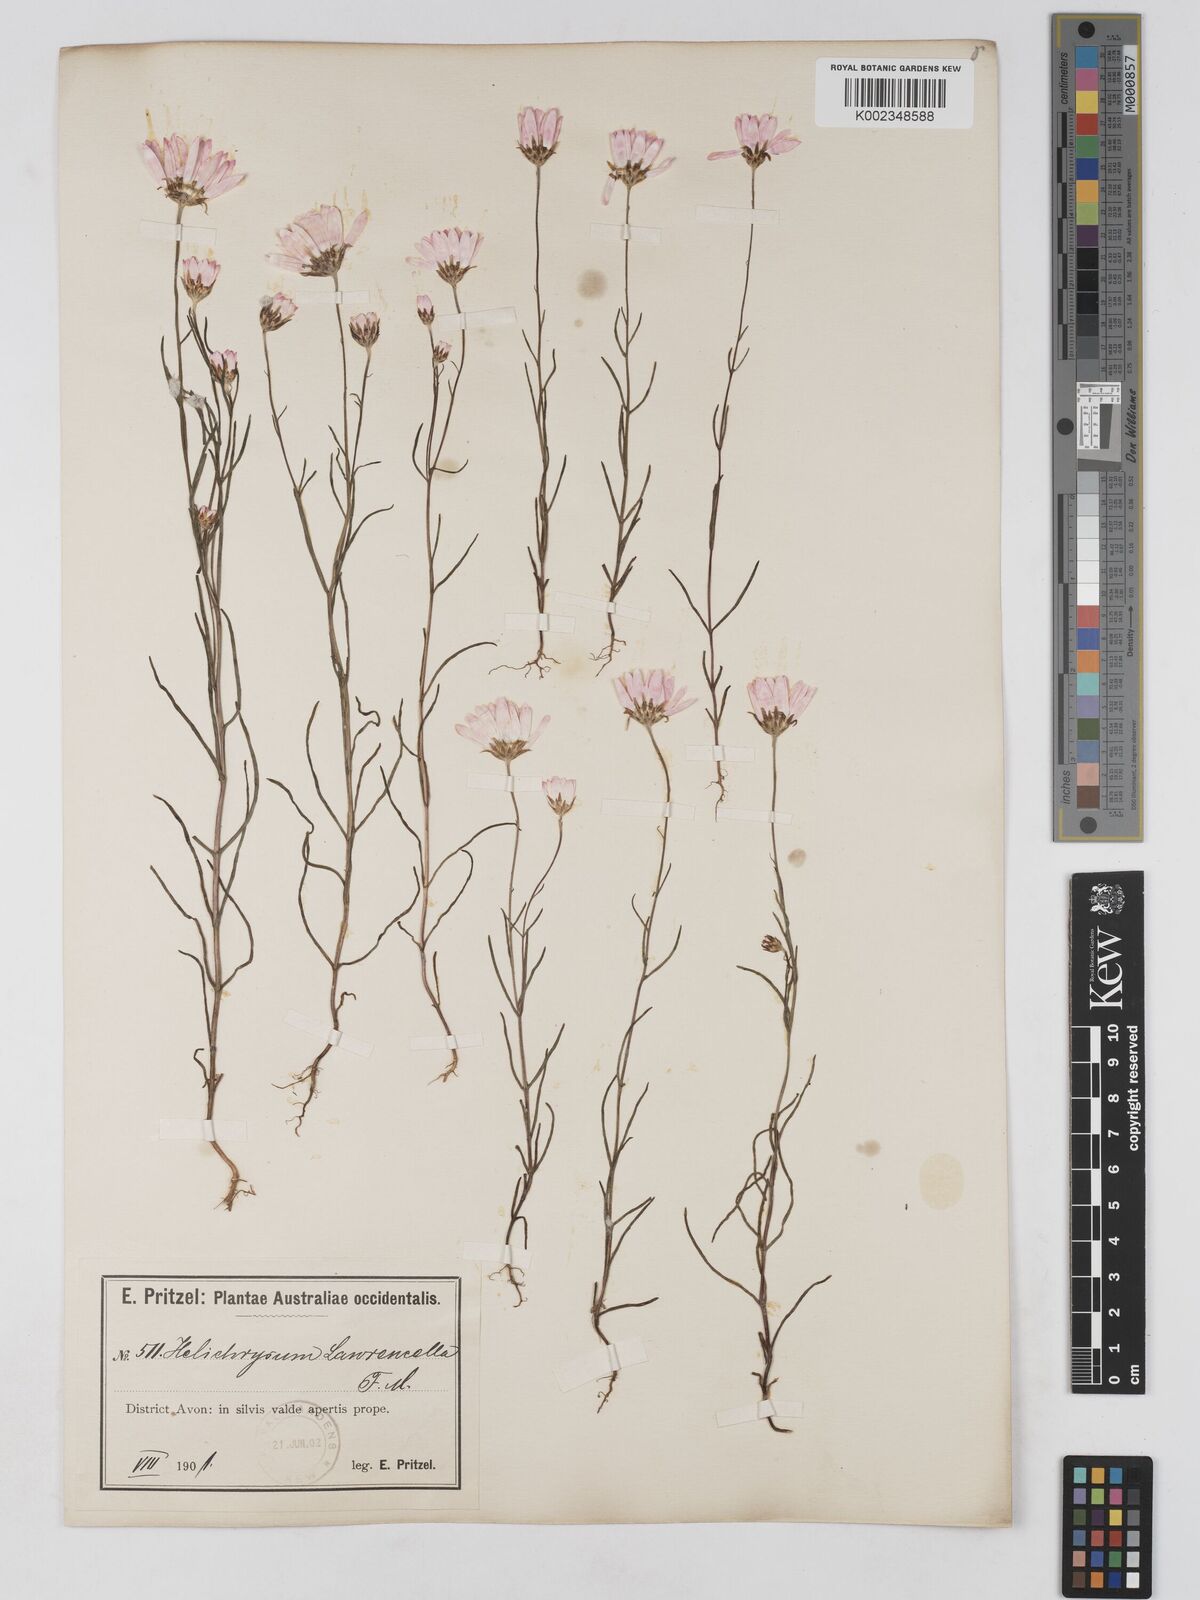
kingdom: Plantae
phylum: Tracheophyta
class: Magnoliopsida
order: Asterales
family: Asteraceae
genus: Lawrencella
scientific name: Lawrencella rosea
